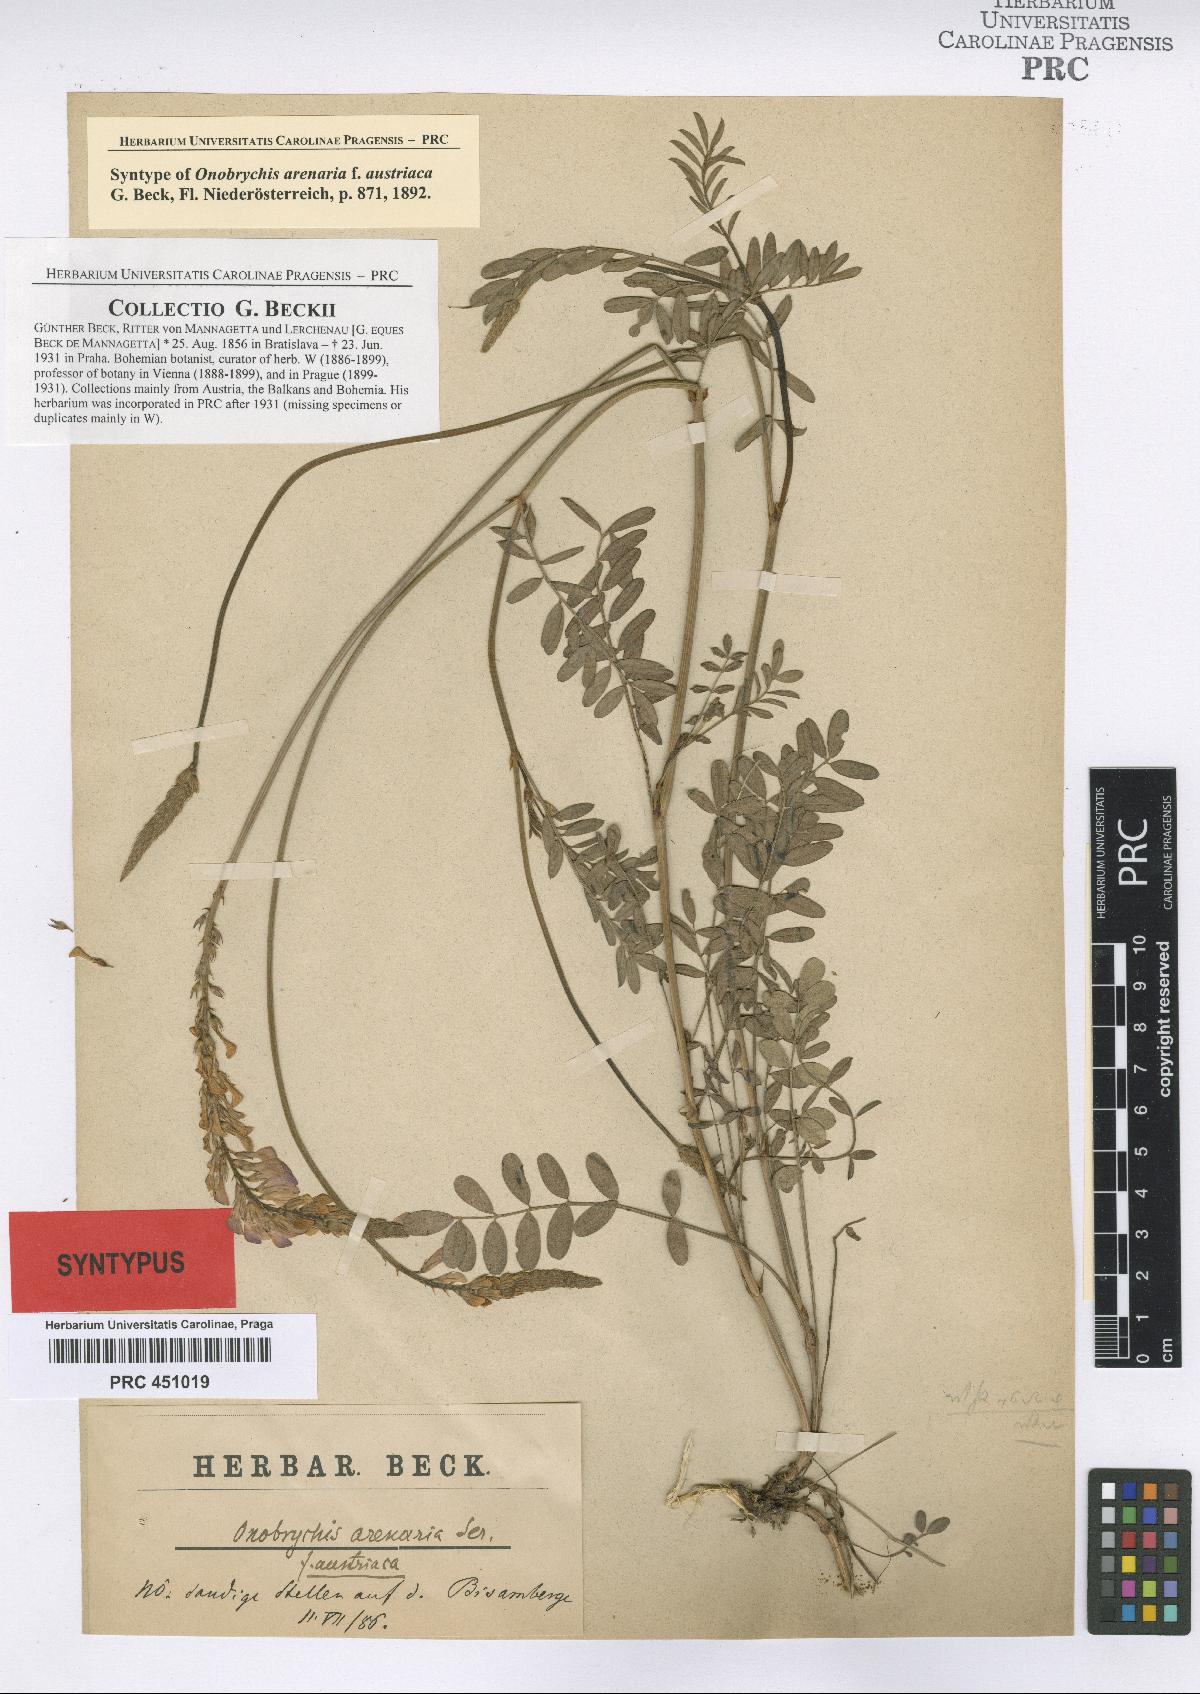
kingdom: Plantae
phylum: Tracheophyta
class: Magnoliopsida
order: Fabales
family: Fabaceae
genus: Onobrychis
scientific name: Onobrychis arenaria
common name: Sand esparcet
